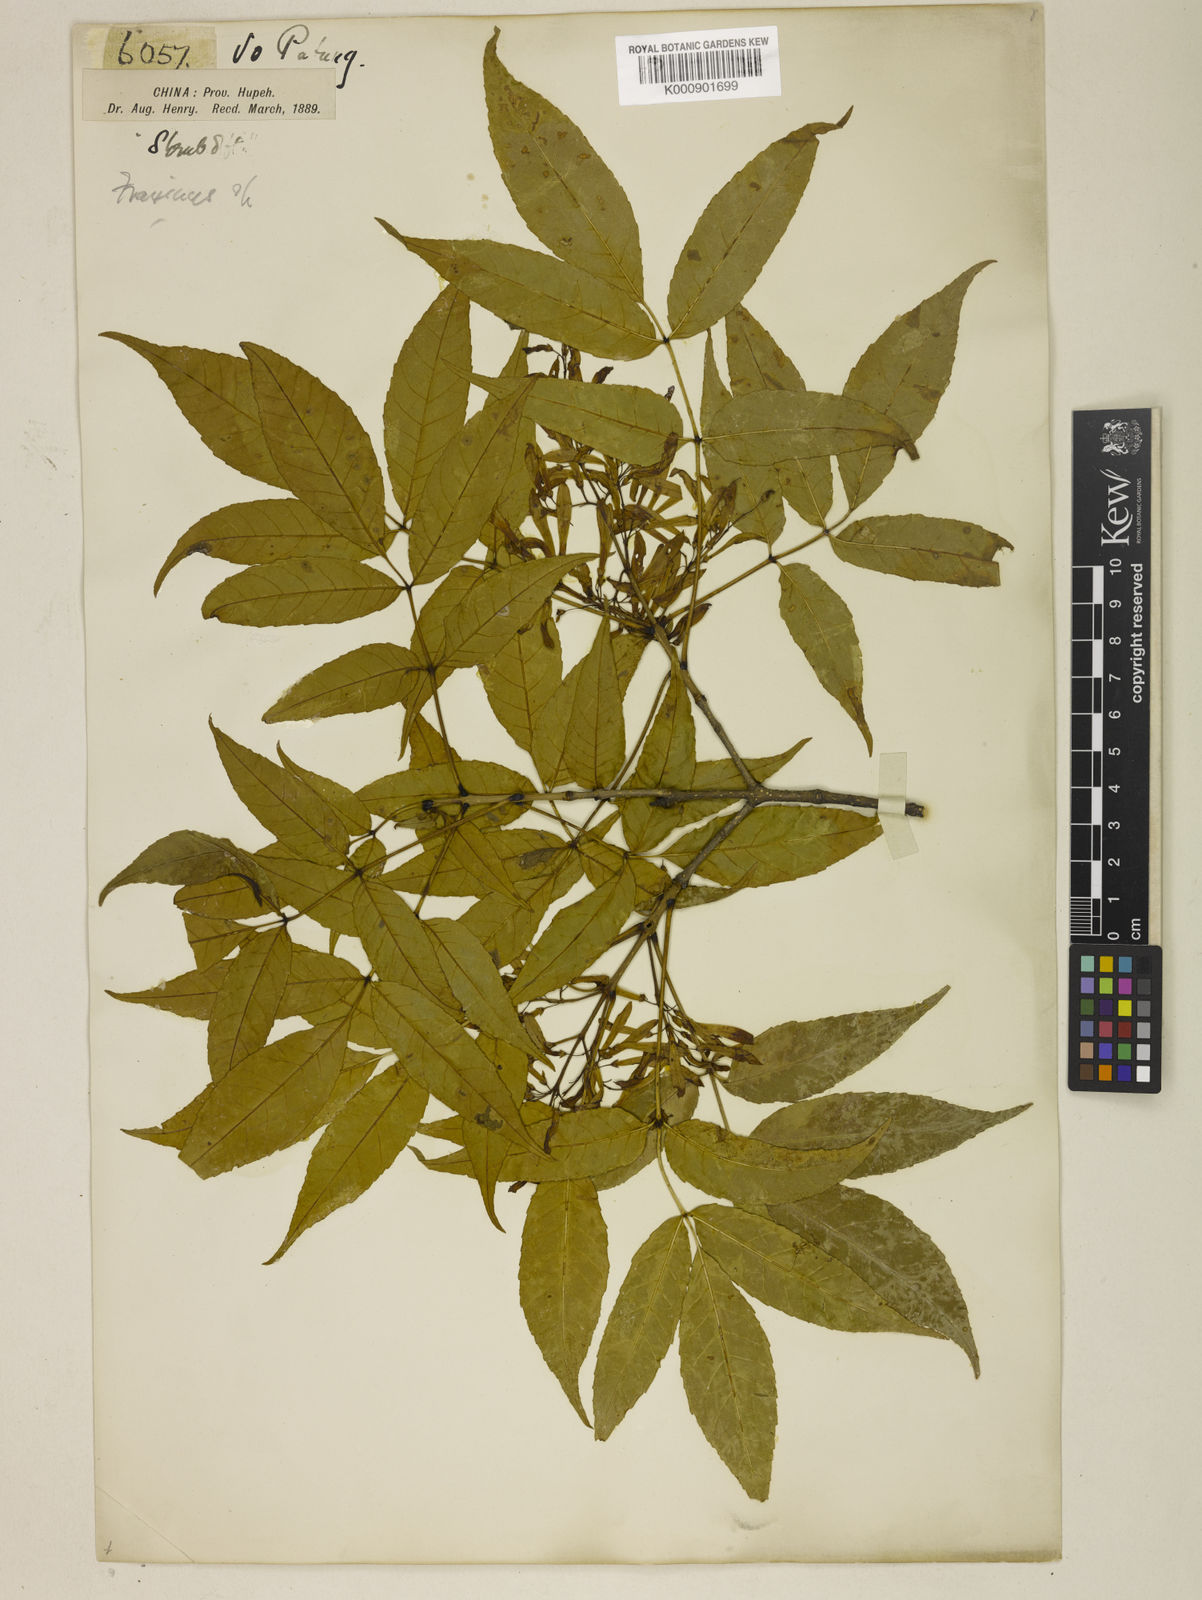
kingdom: Plantae
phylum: Tracheophyta
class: Magnoliopsida
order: Lamiales
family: Oleaceae
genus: Fraxinus
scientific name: Fraxinus paxiana
